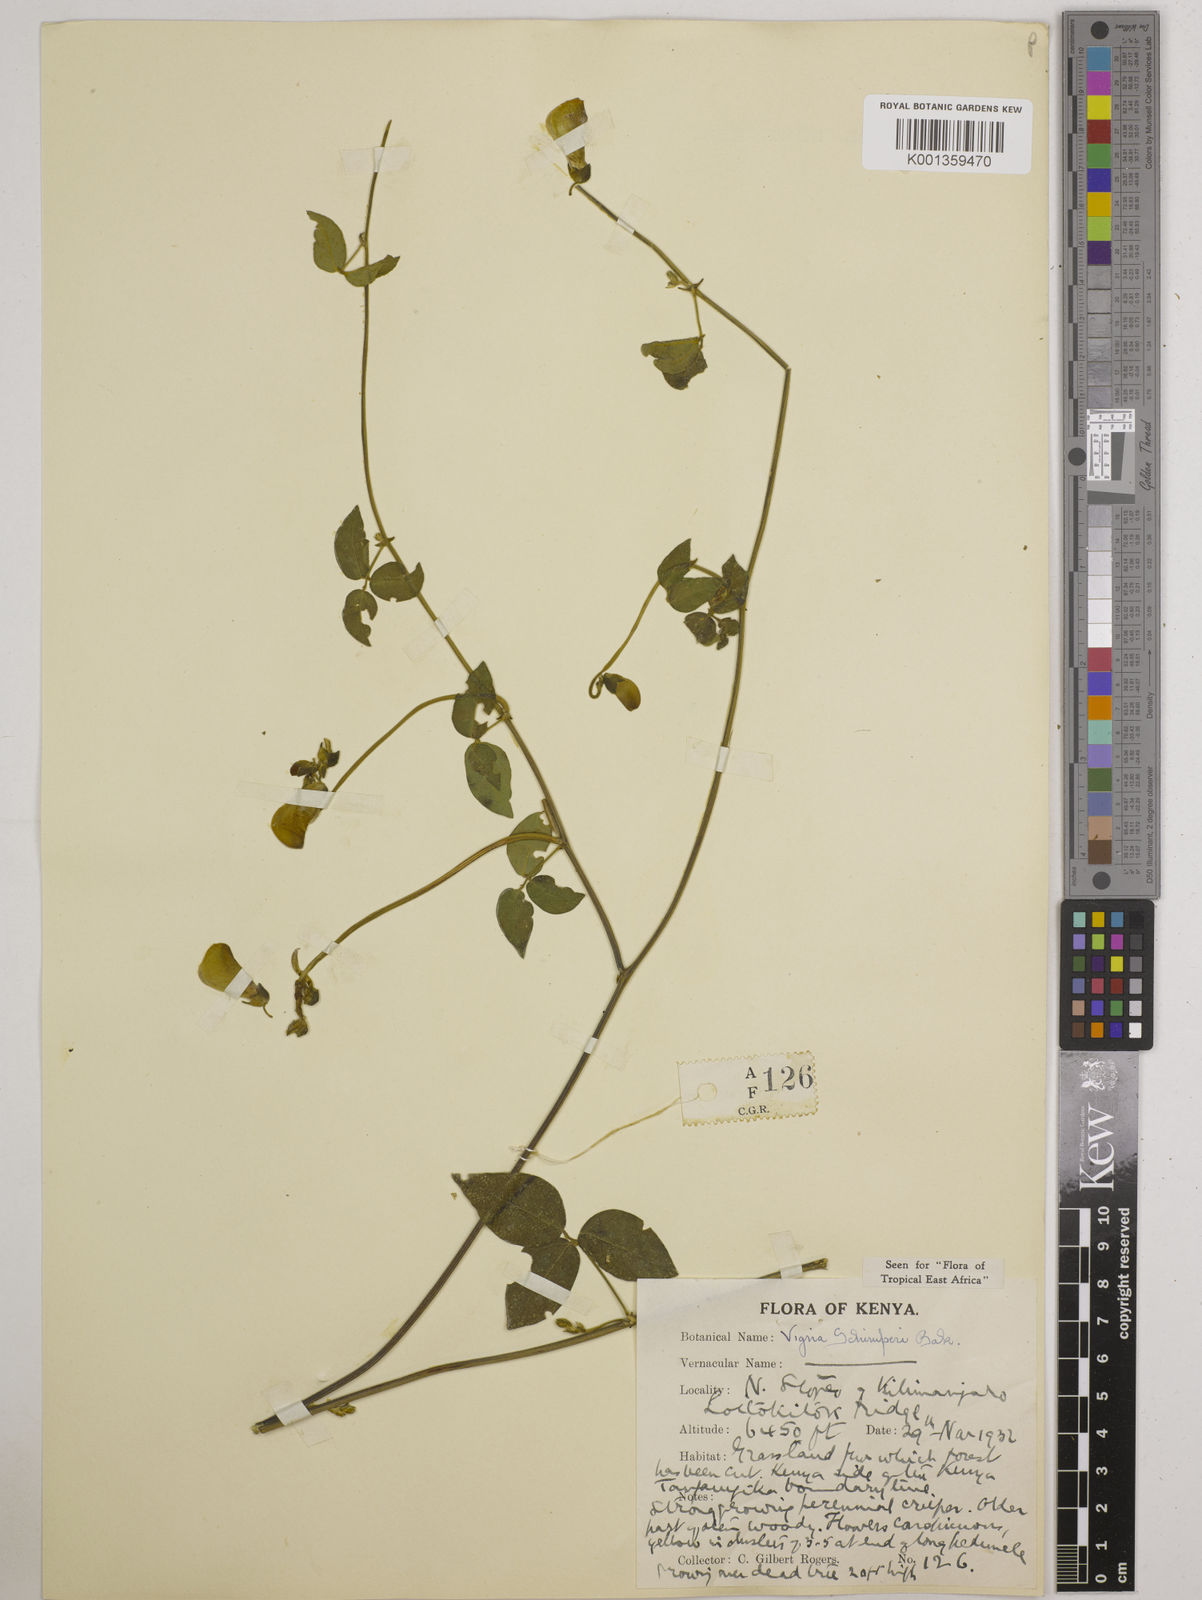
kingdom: Plantae
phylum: Tracheophyta
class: Magnoliopsida
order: Fabales
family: Fabaceae
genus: Vigna
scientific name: Vigna schimperi
